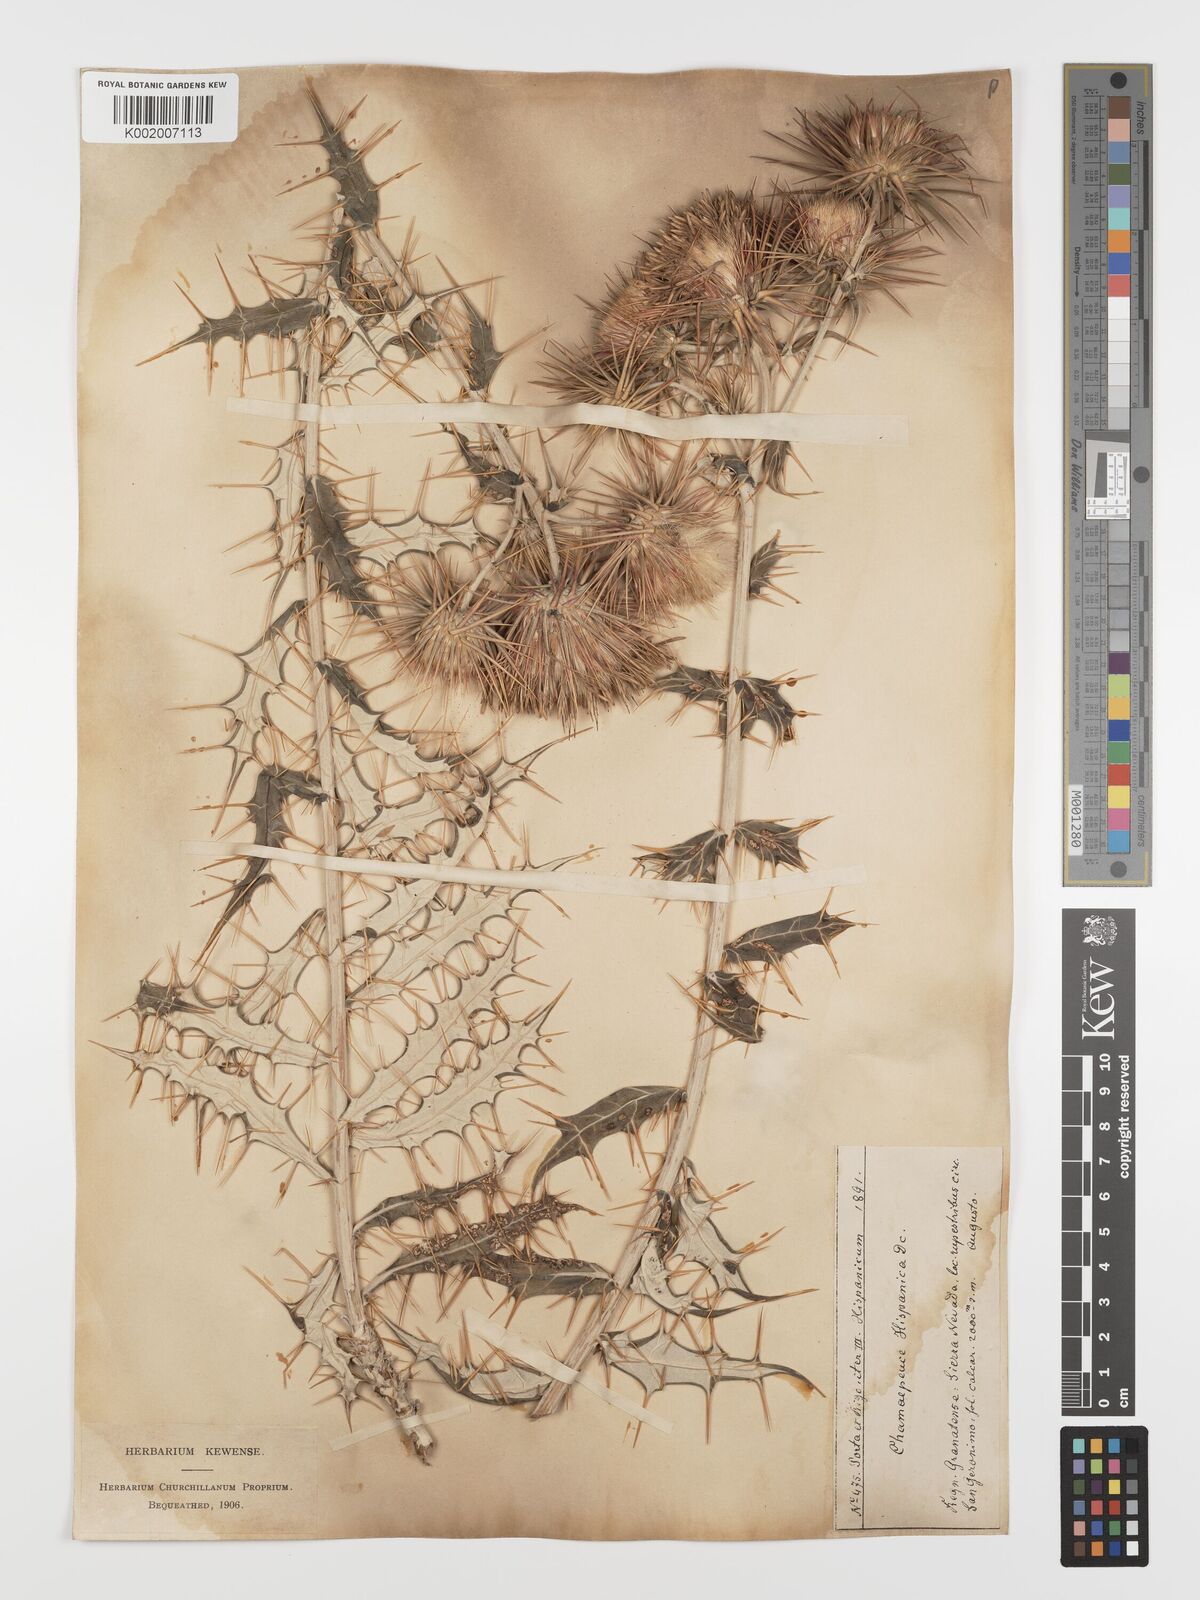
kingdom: Plantae
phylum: Tracheophyta
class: Magnoliopsida
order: Asterales
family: Asteraceae
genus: Ptilostemon
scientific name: Ptilostemon hispanicus
